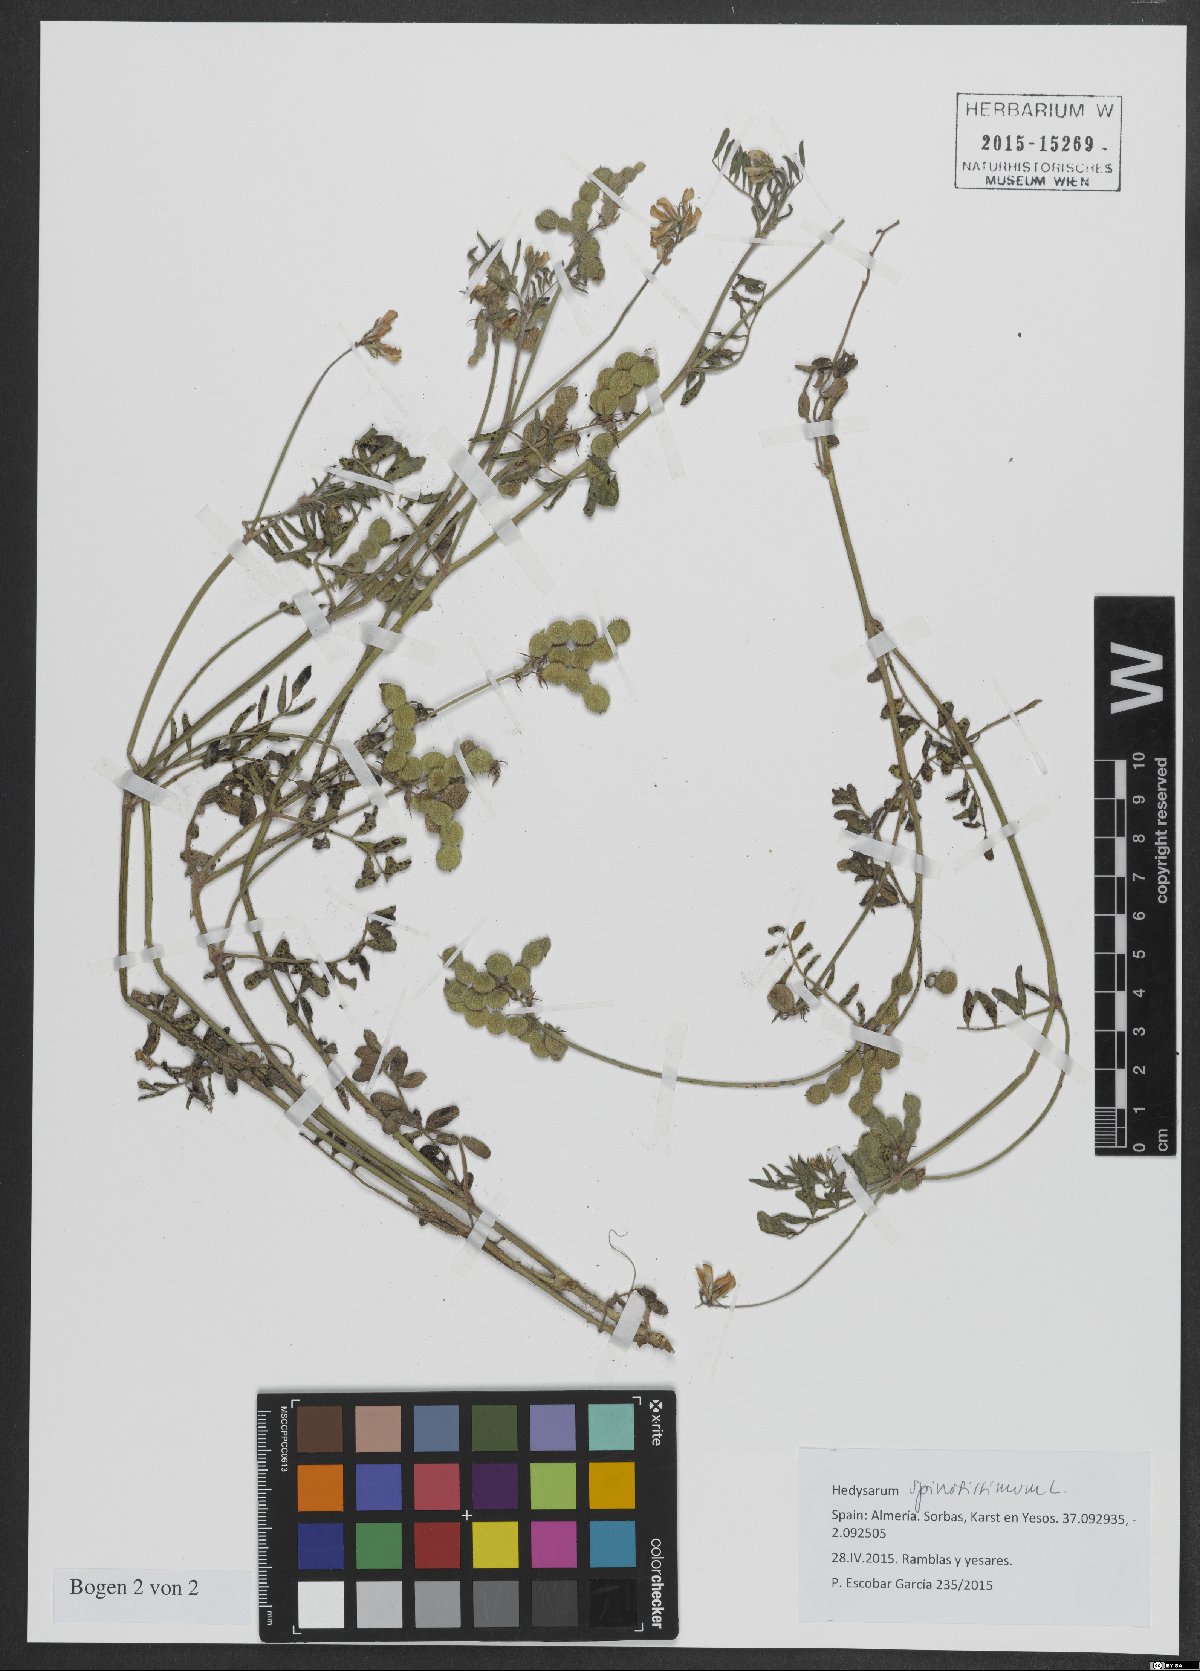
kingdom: Plantae
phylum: Tracheophyta
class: Magnoliopsida
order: Fabales
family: Fabaceae
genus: Sulla
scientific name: Sulla spinosissima
